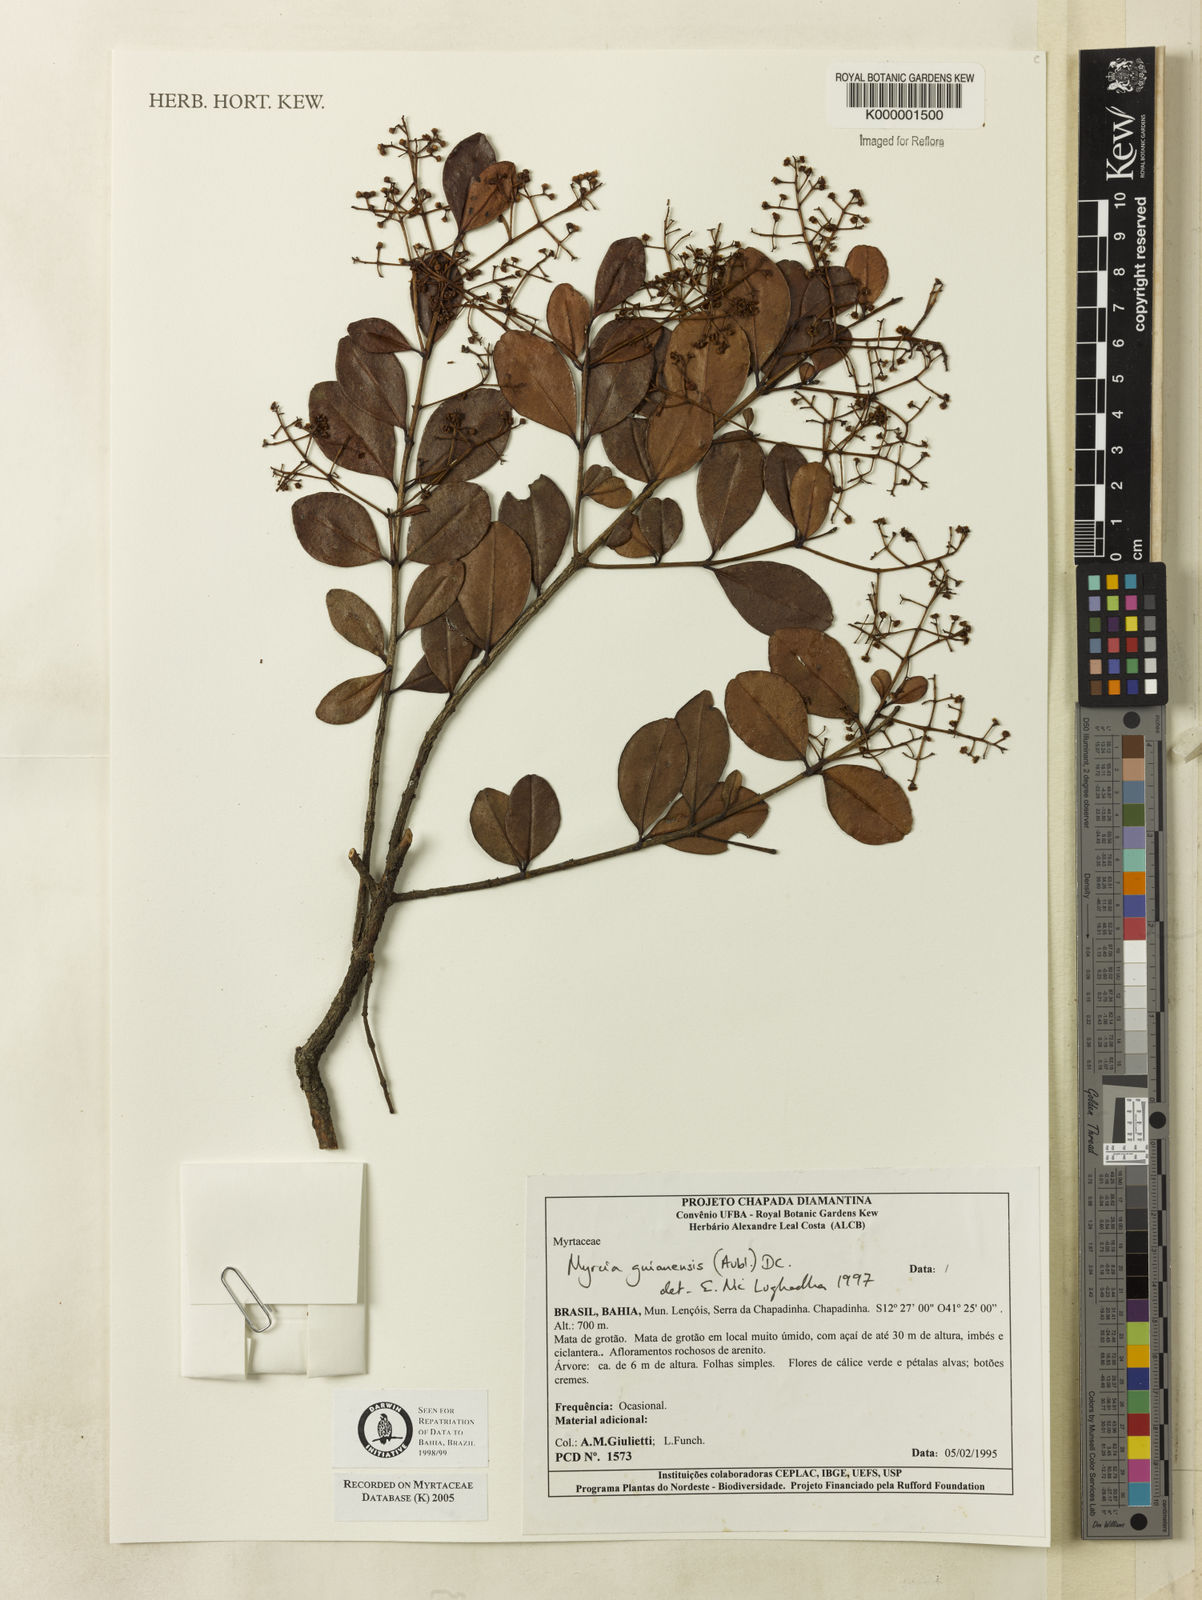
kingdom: Plantae
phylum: Tracheophyta
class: Magnoliopsida
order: Myrtales
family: Myrtaceae
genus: Myrcia
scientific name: Myrcia guianensis
